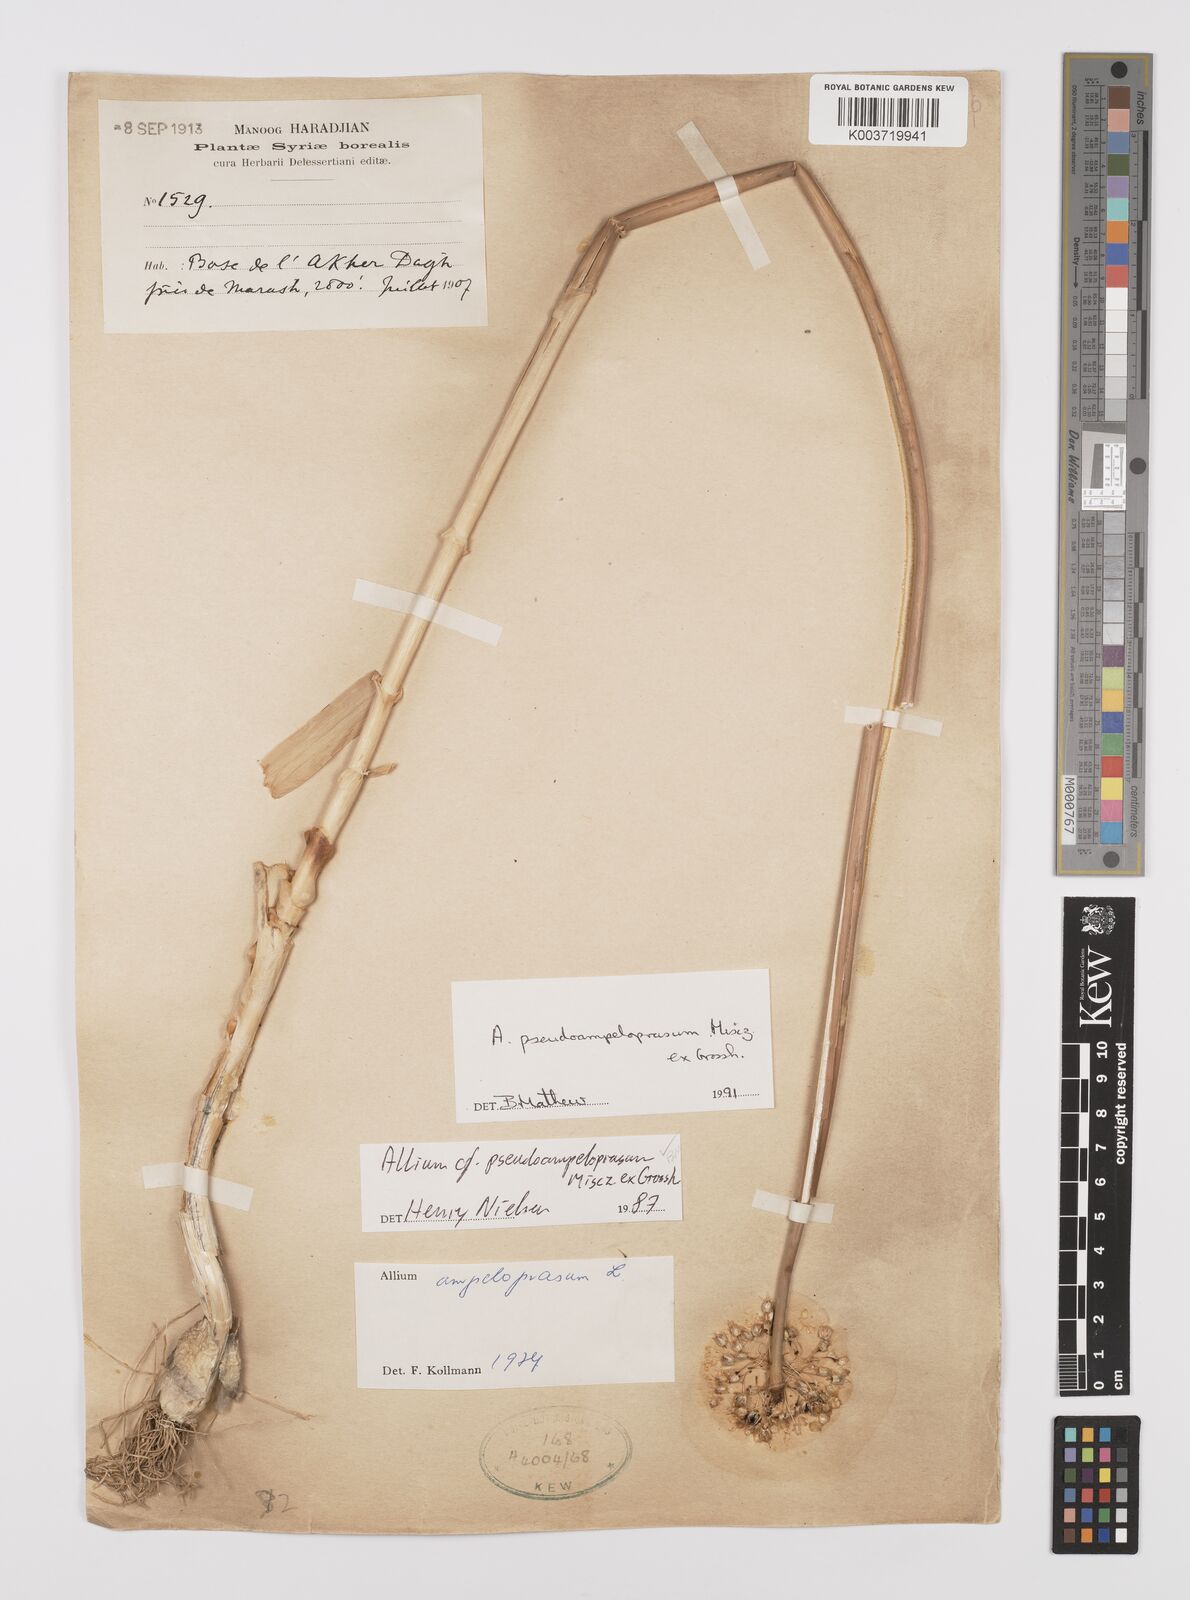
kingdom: Plantae
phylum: Tracheophyta
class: Liliopsida
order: Asparagales
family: Amaryllidaceae
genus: Allium
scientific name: Allium pseudoampeloprasum
